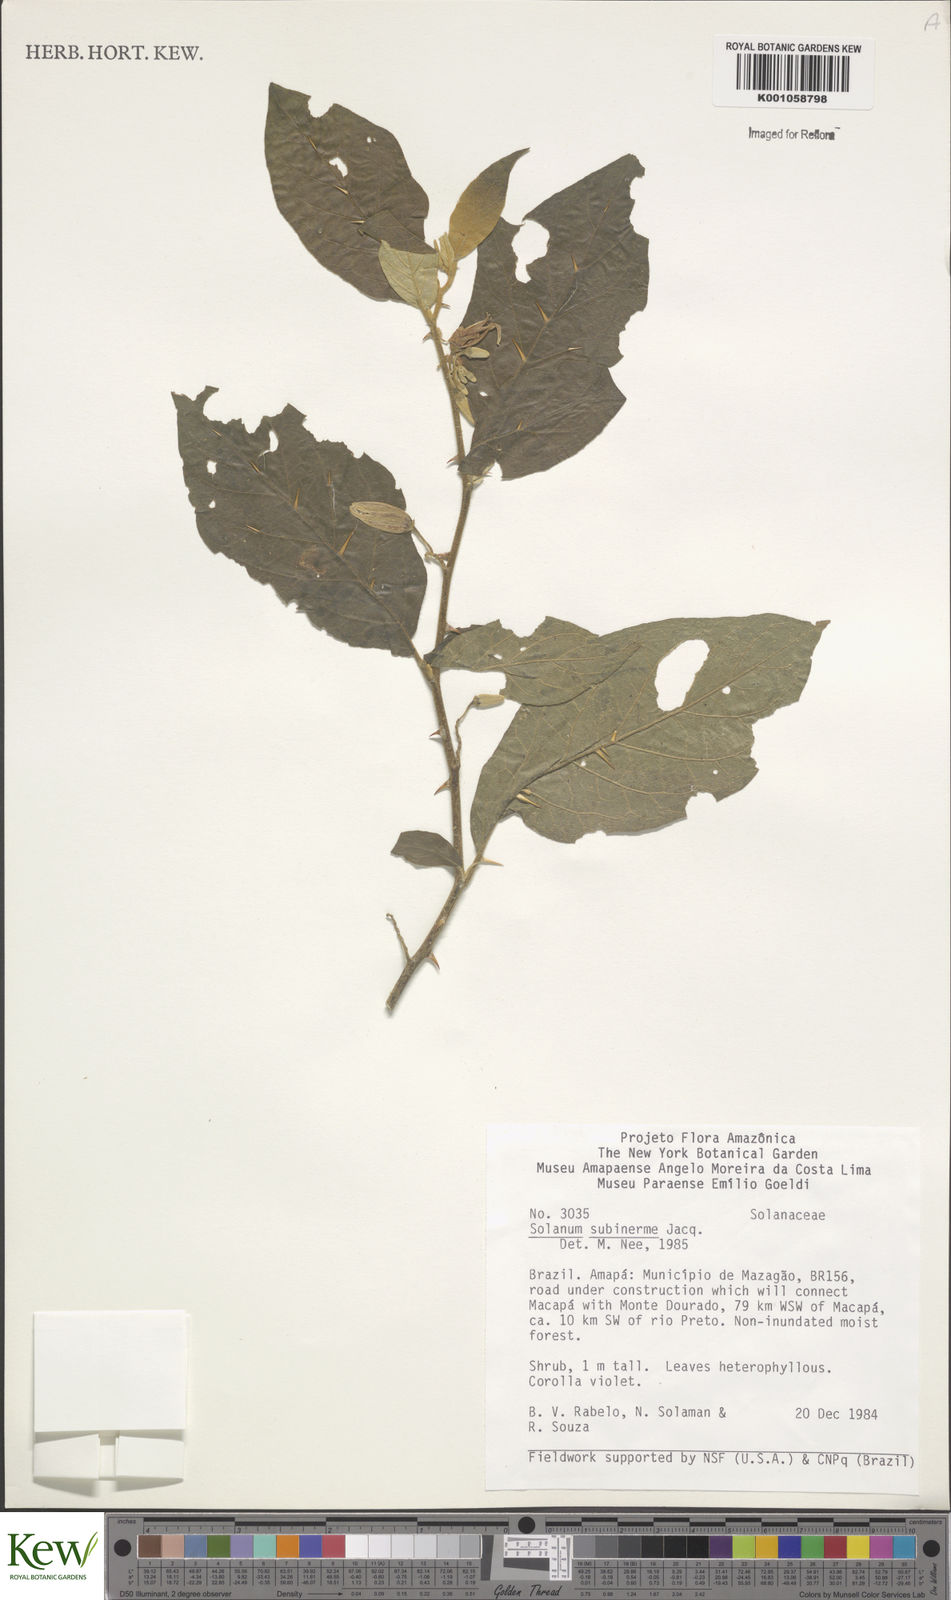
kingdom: Plantae
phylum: Tracheophyta
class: Magnoliopsida
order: Solanales
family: Solanaceae
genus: Solanum
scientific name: Solanum subinerme
